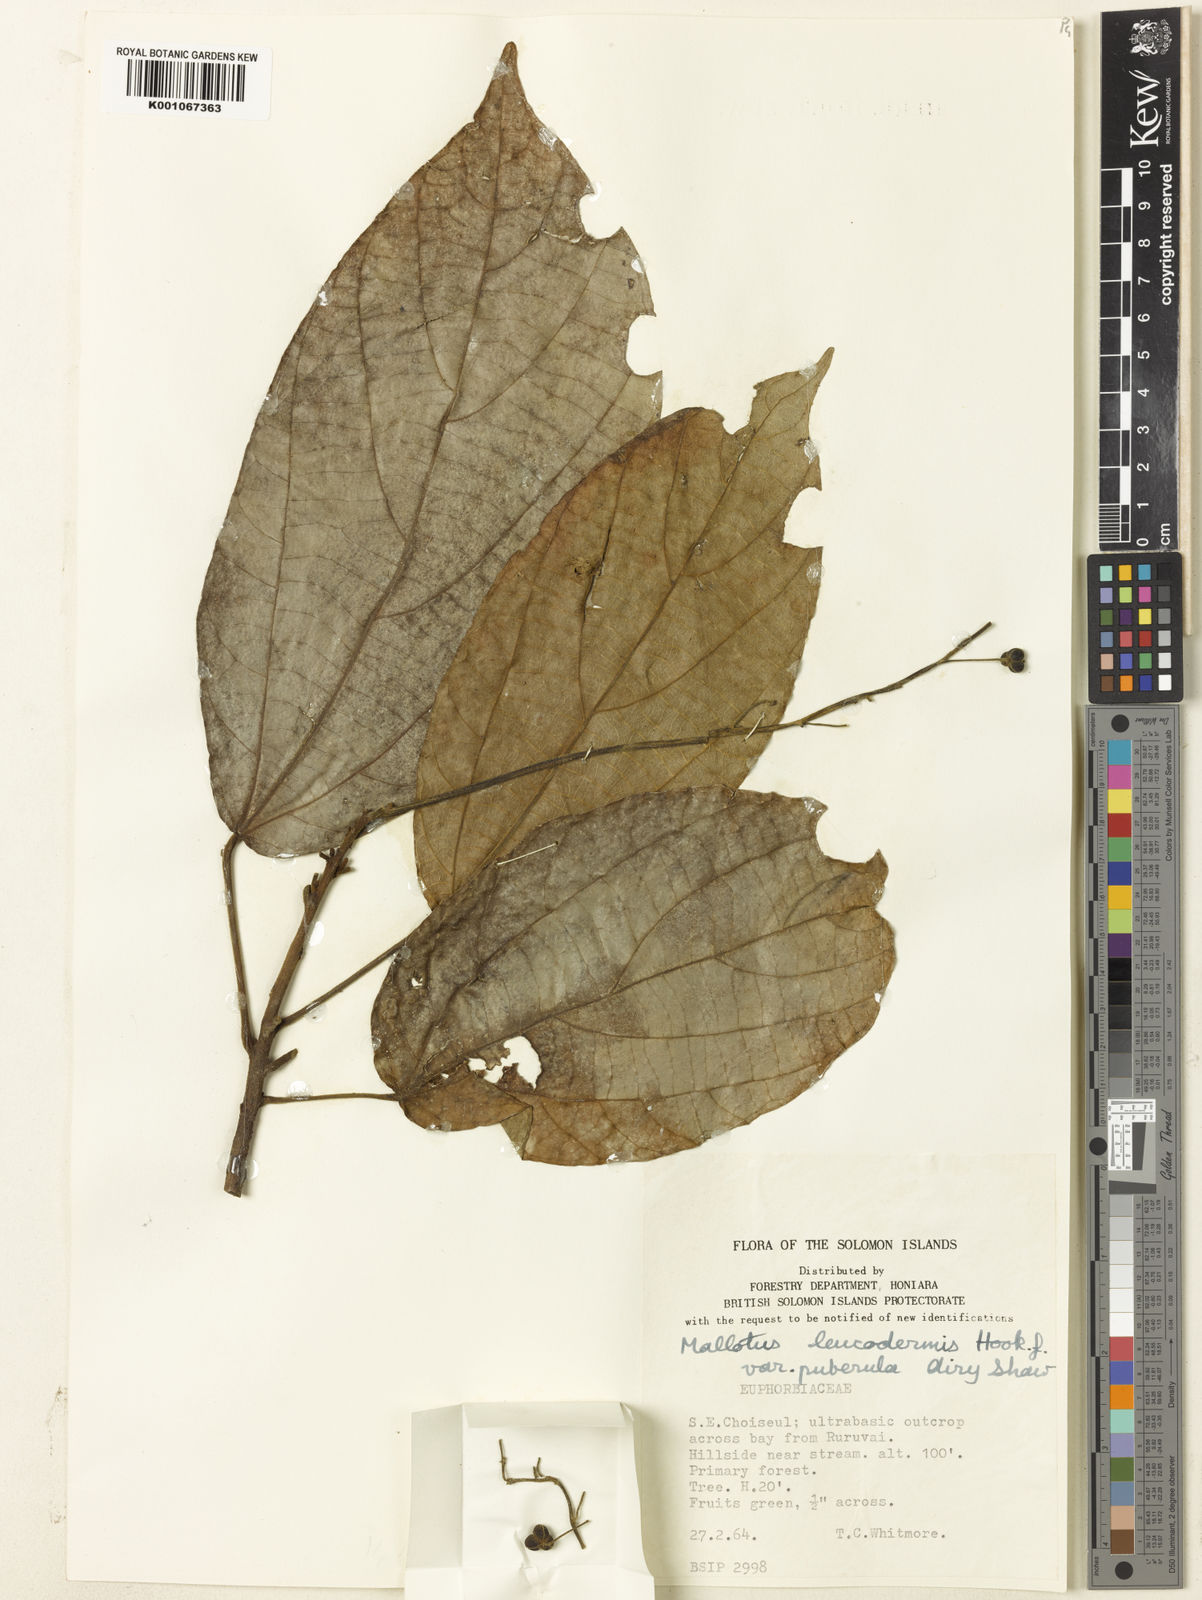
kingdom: Plantae
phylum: Tracheophyta
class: Magnoliopsida
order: Malpighiales
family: Euphorbiaceae
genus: Mallotus
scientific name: Mallotus leucodermis
